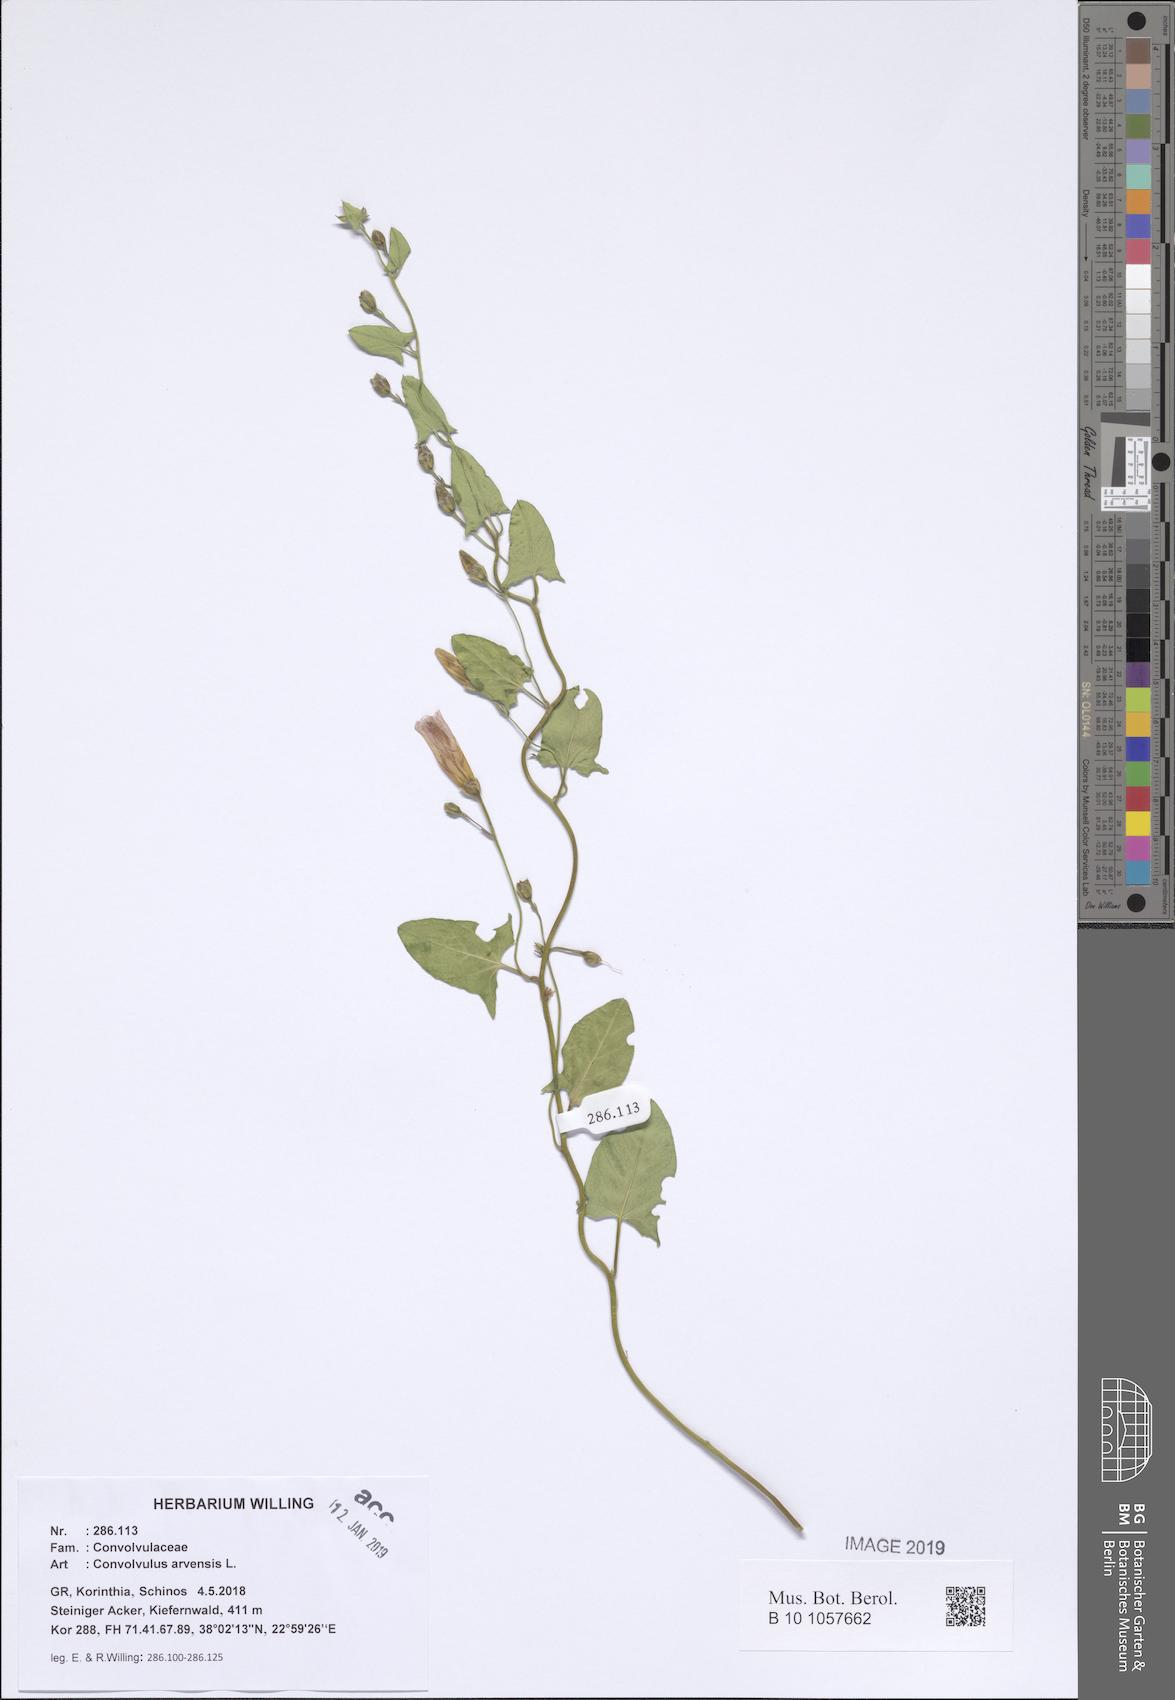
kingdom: Plantae
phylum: Tracheophyta
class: Magnoliopsida
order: Solanales
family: Convolvulaceae
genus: Convolvulus
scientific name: Convolvulus arvensis
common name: Field bindweed
